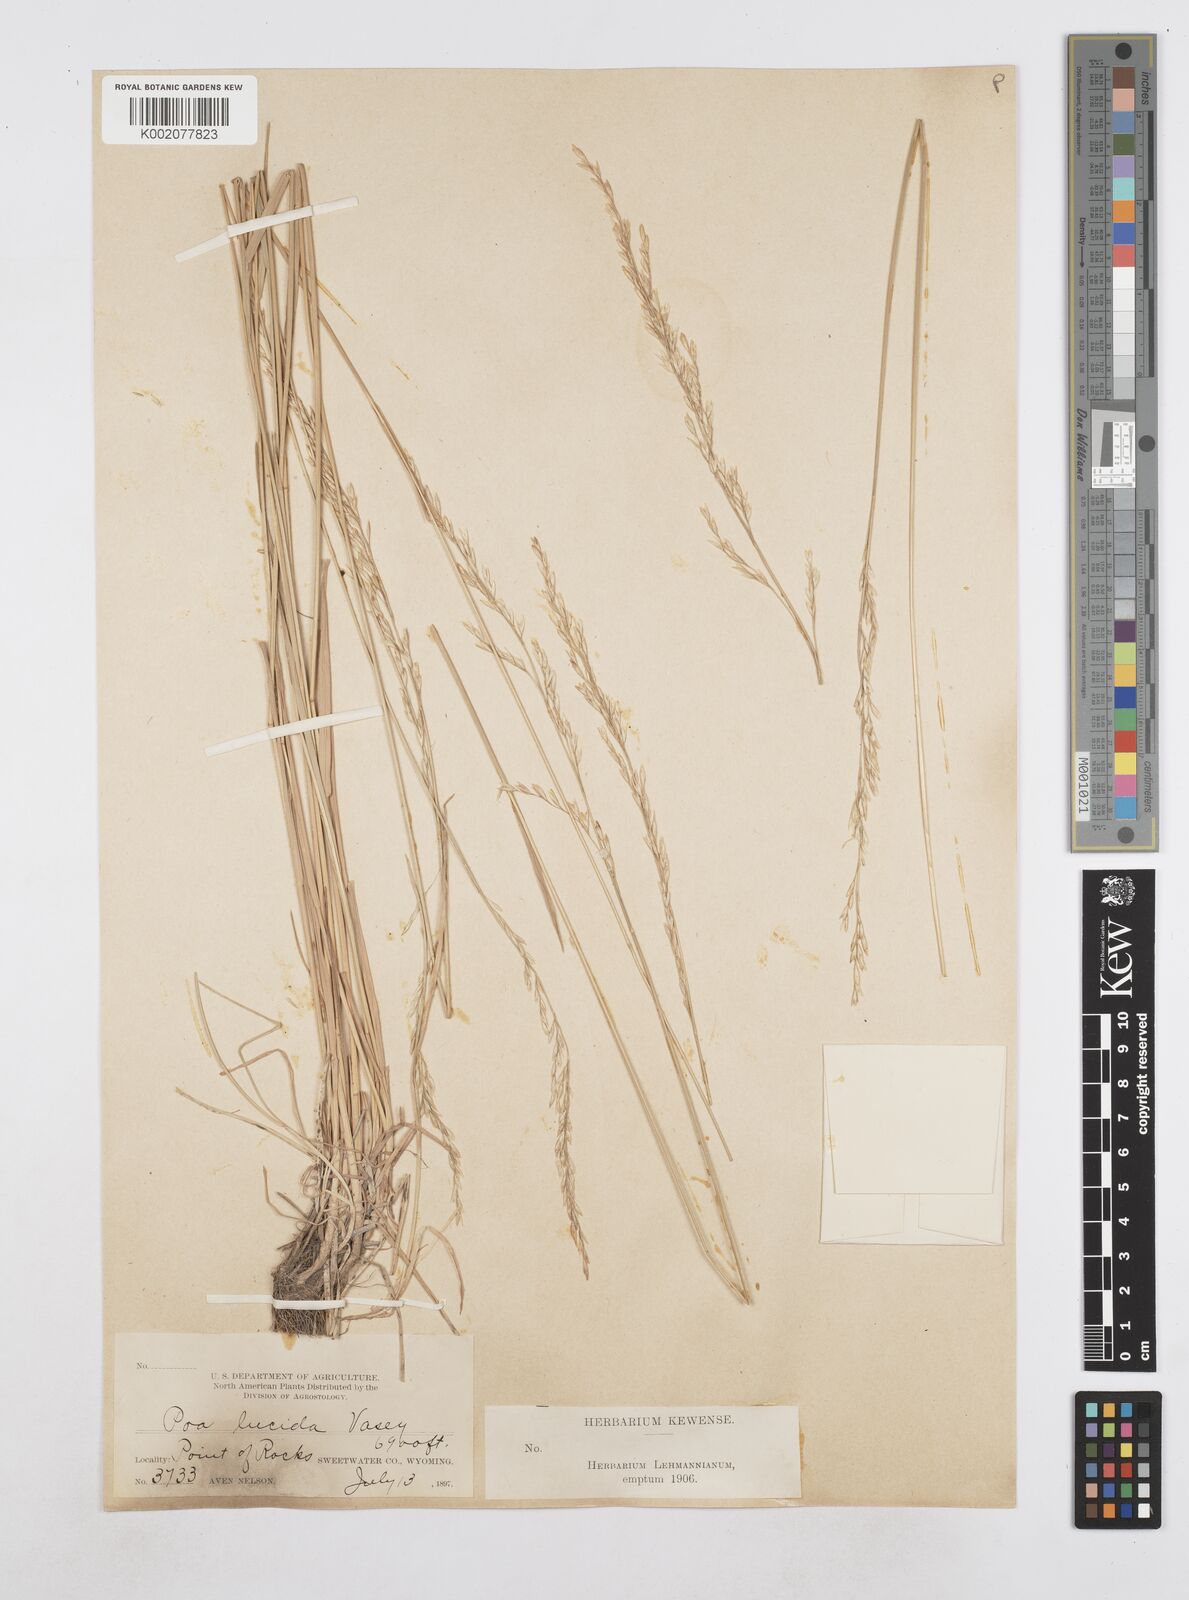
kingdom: Plantae
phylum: Tracheophyta
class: Liliopsida
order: Poales
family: Poaceae
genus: Poa
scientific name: Poa secunda
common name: Sandberg bluegrass
